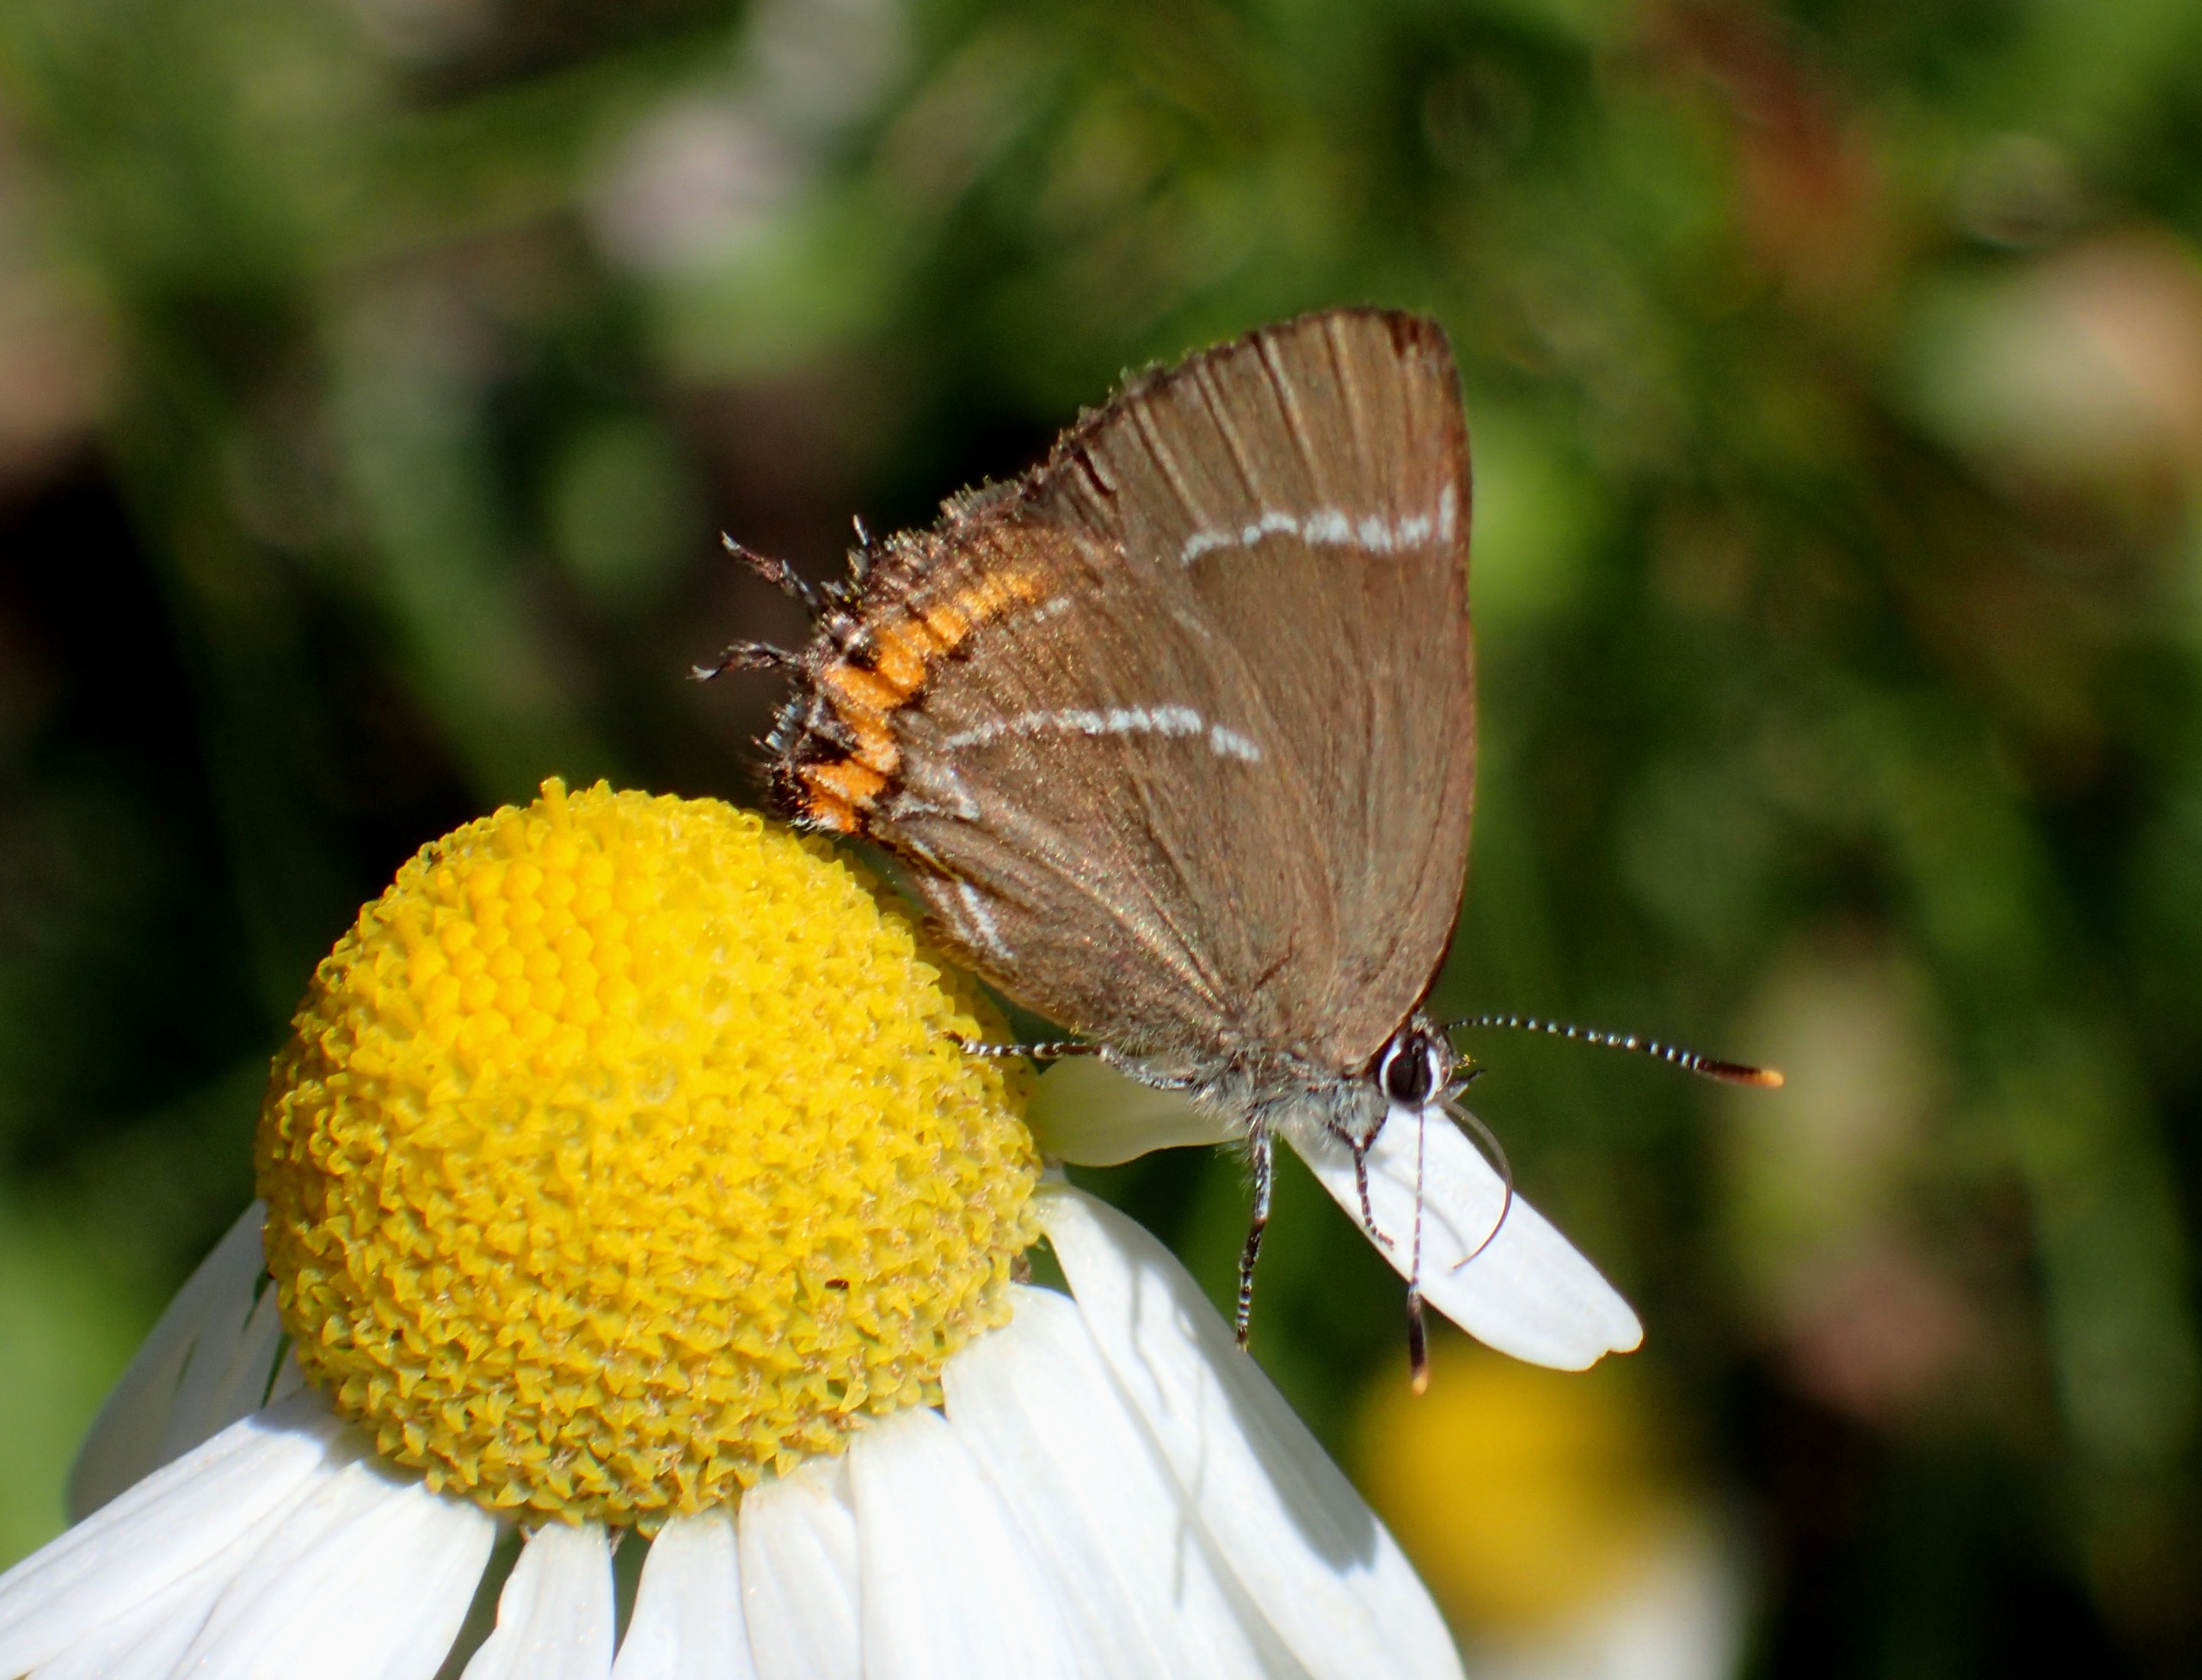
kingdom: Animalia
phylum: Arthropoda
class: Insecta
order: Lepidoptera
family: Lycaenidae
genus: Satyrium
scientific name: Satyrium w-album
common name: Det hvide W
